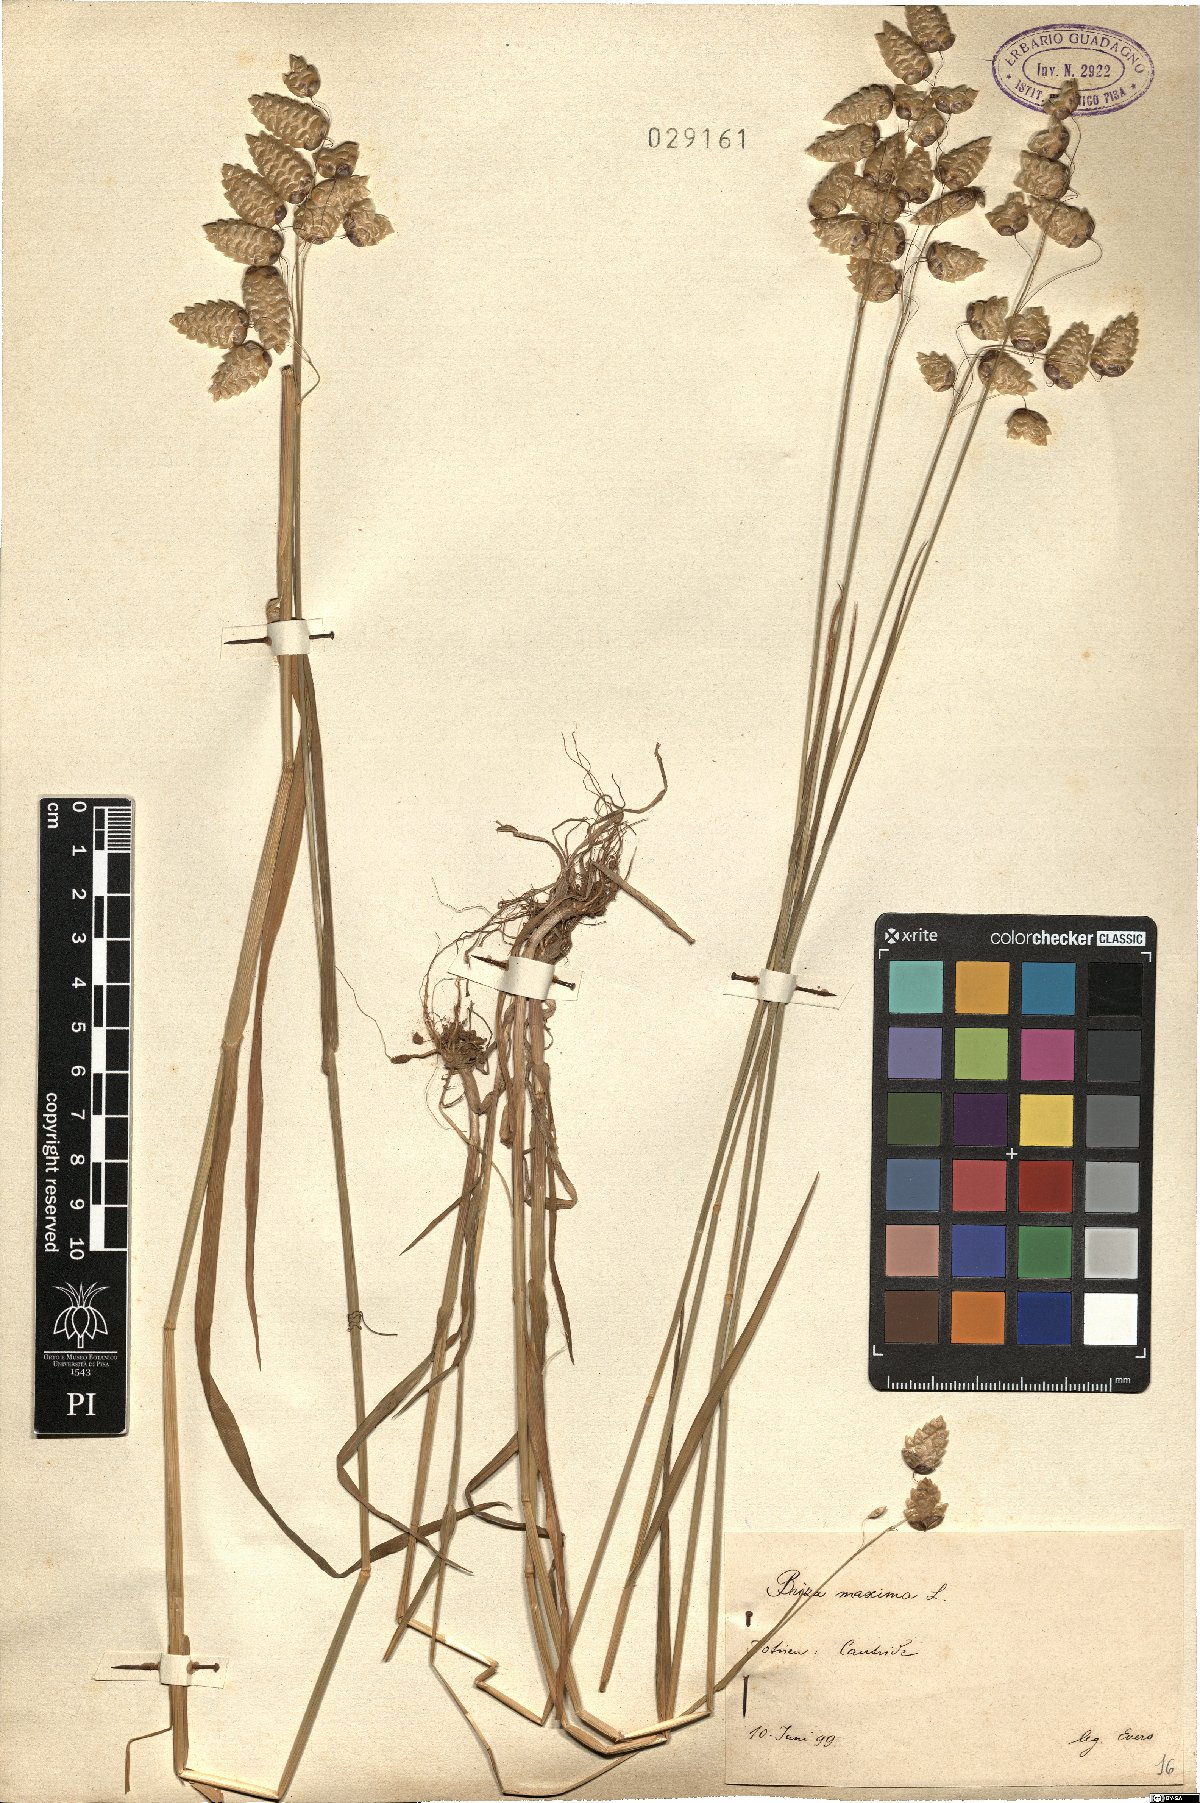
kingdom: Plantae
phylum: Tracheophyta
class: Liliopsida
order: Poales
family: Poaceae
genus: Briza
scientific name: Briza maxima
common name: Big quakinggrass
